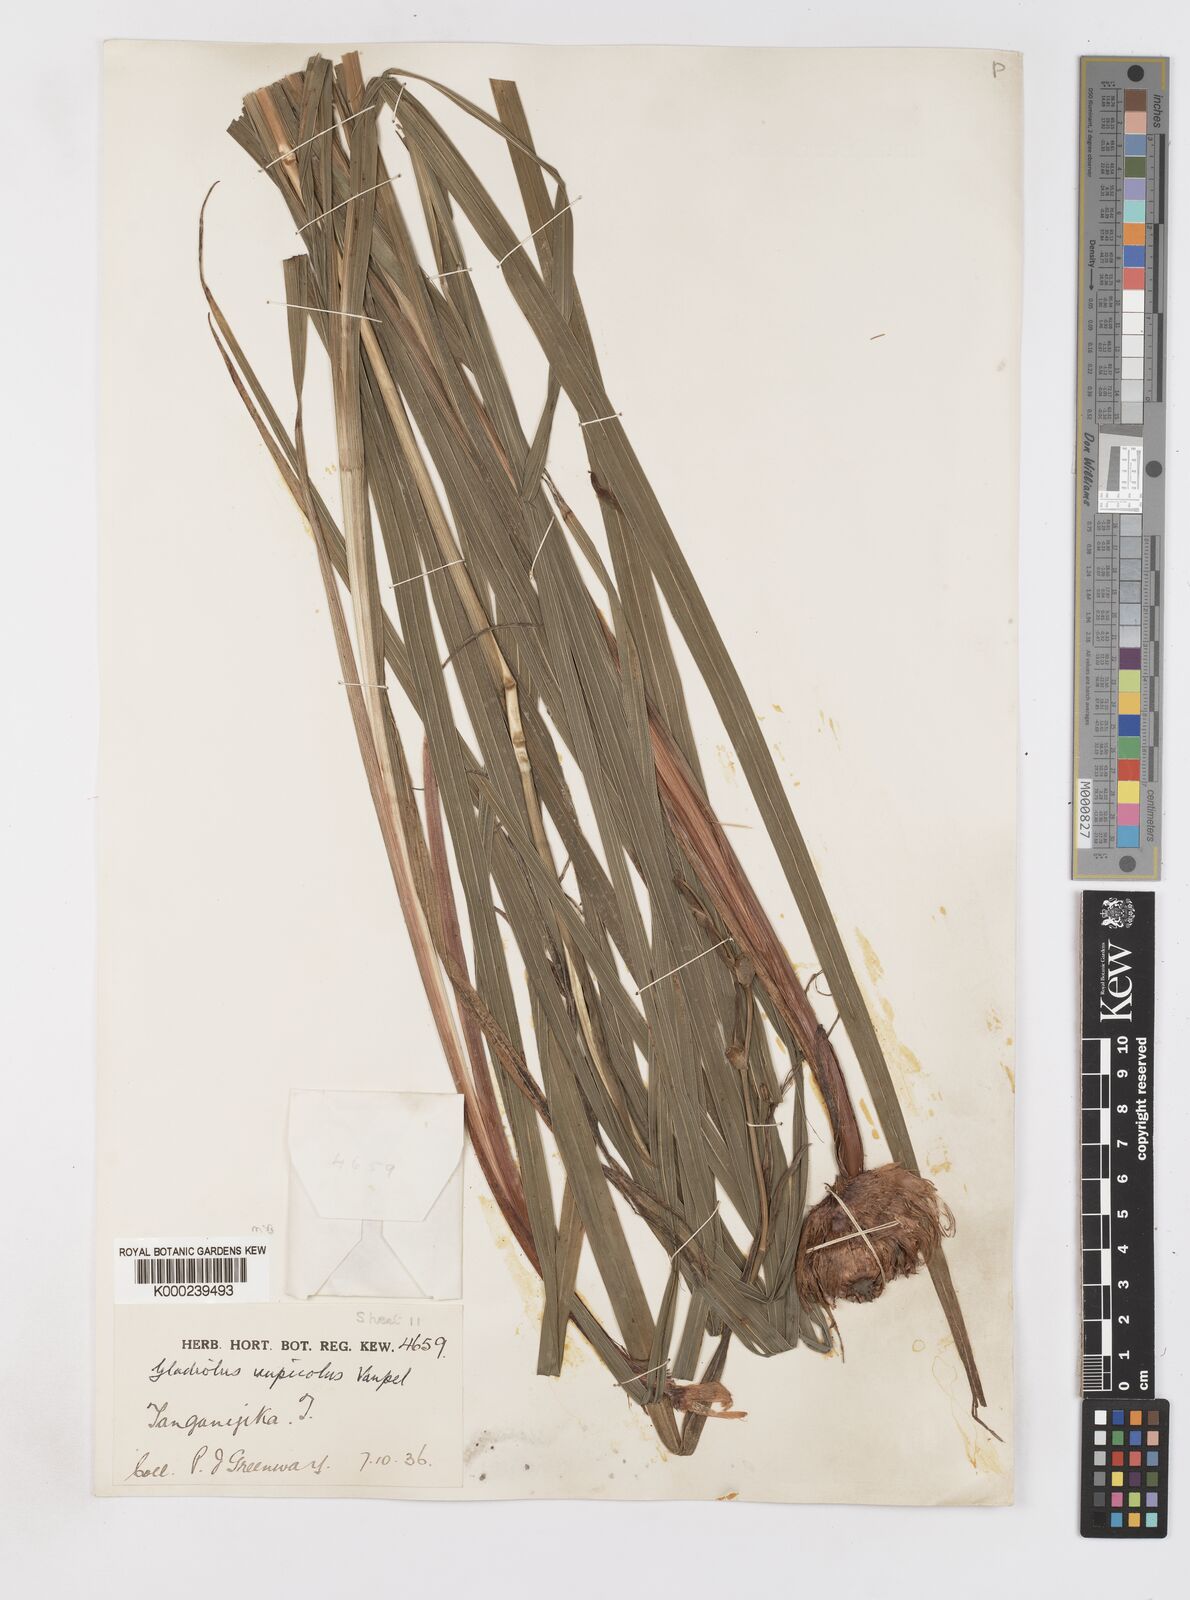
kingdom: Plantae
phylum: Tracheophyta
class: Liliopsida
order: Asparagales
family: Iridaceae
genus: Gladiolus
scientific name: Gladiolus rupicola
